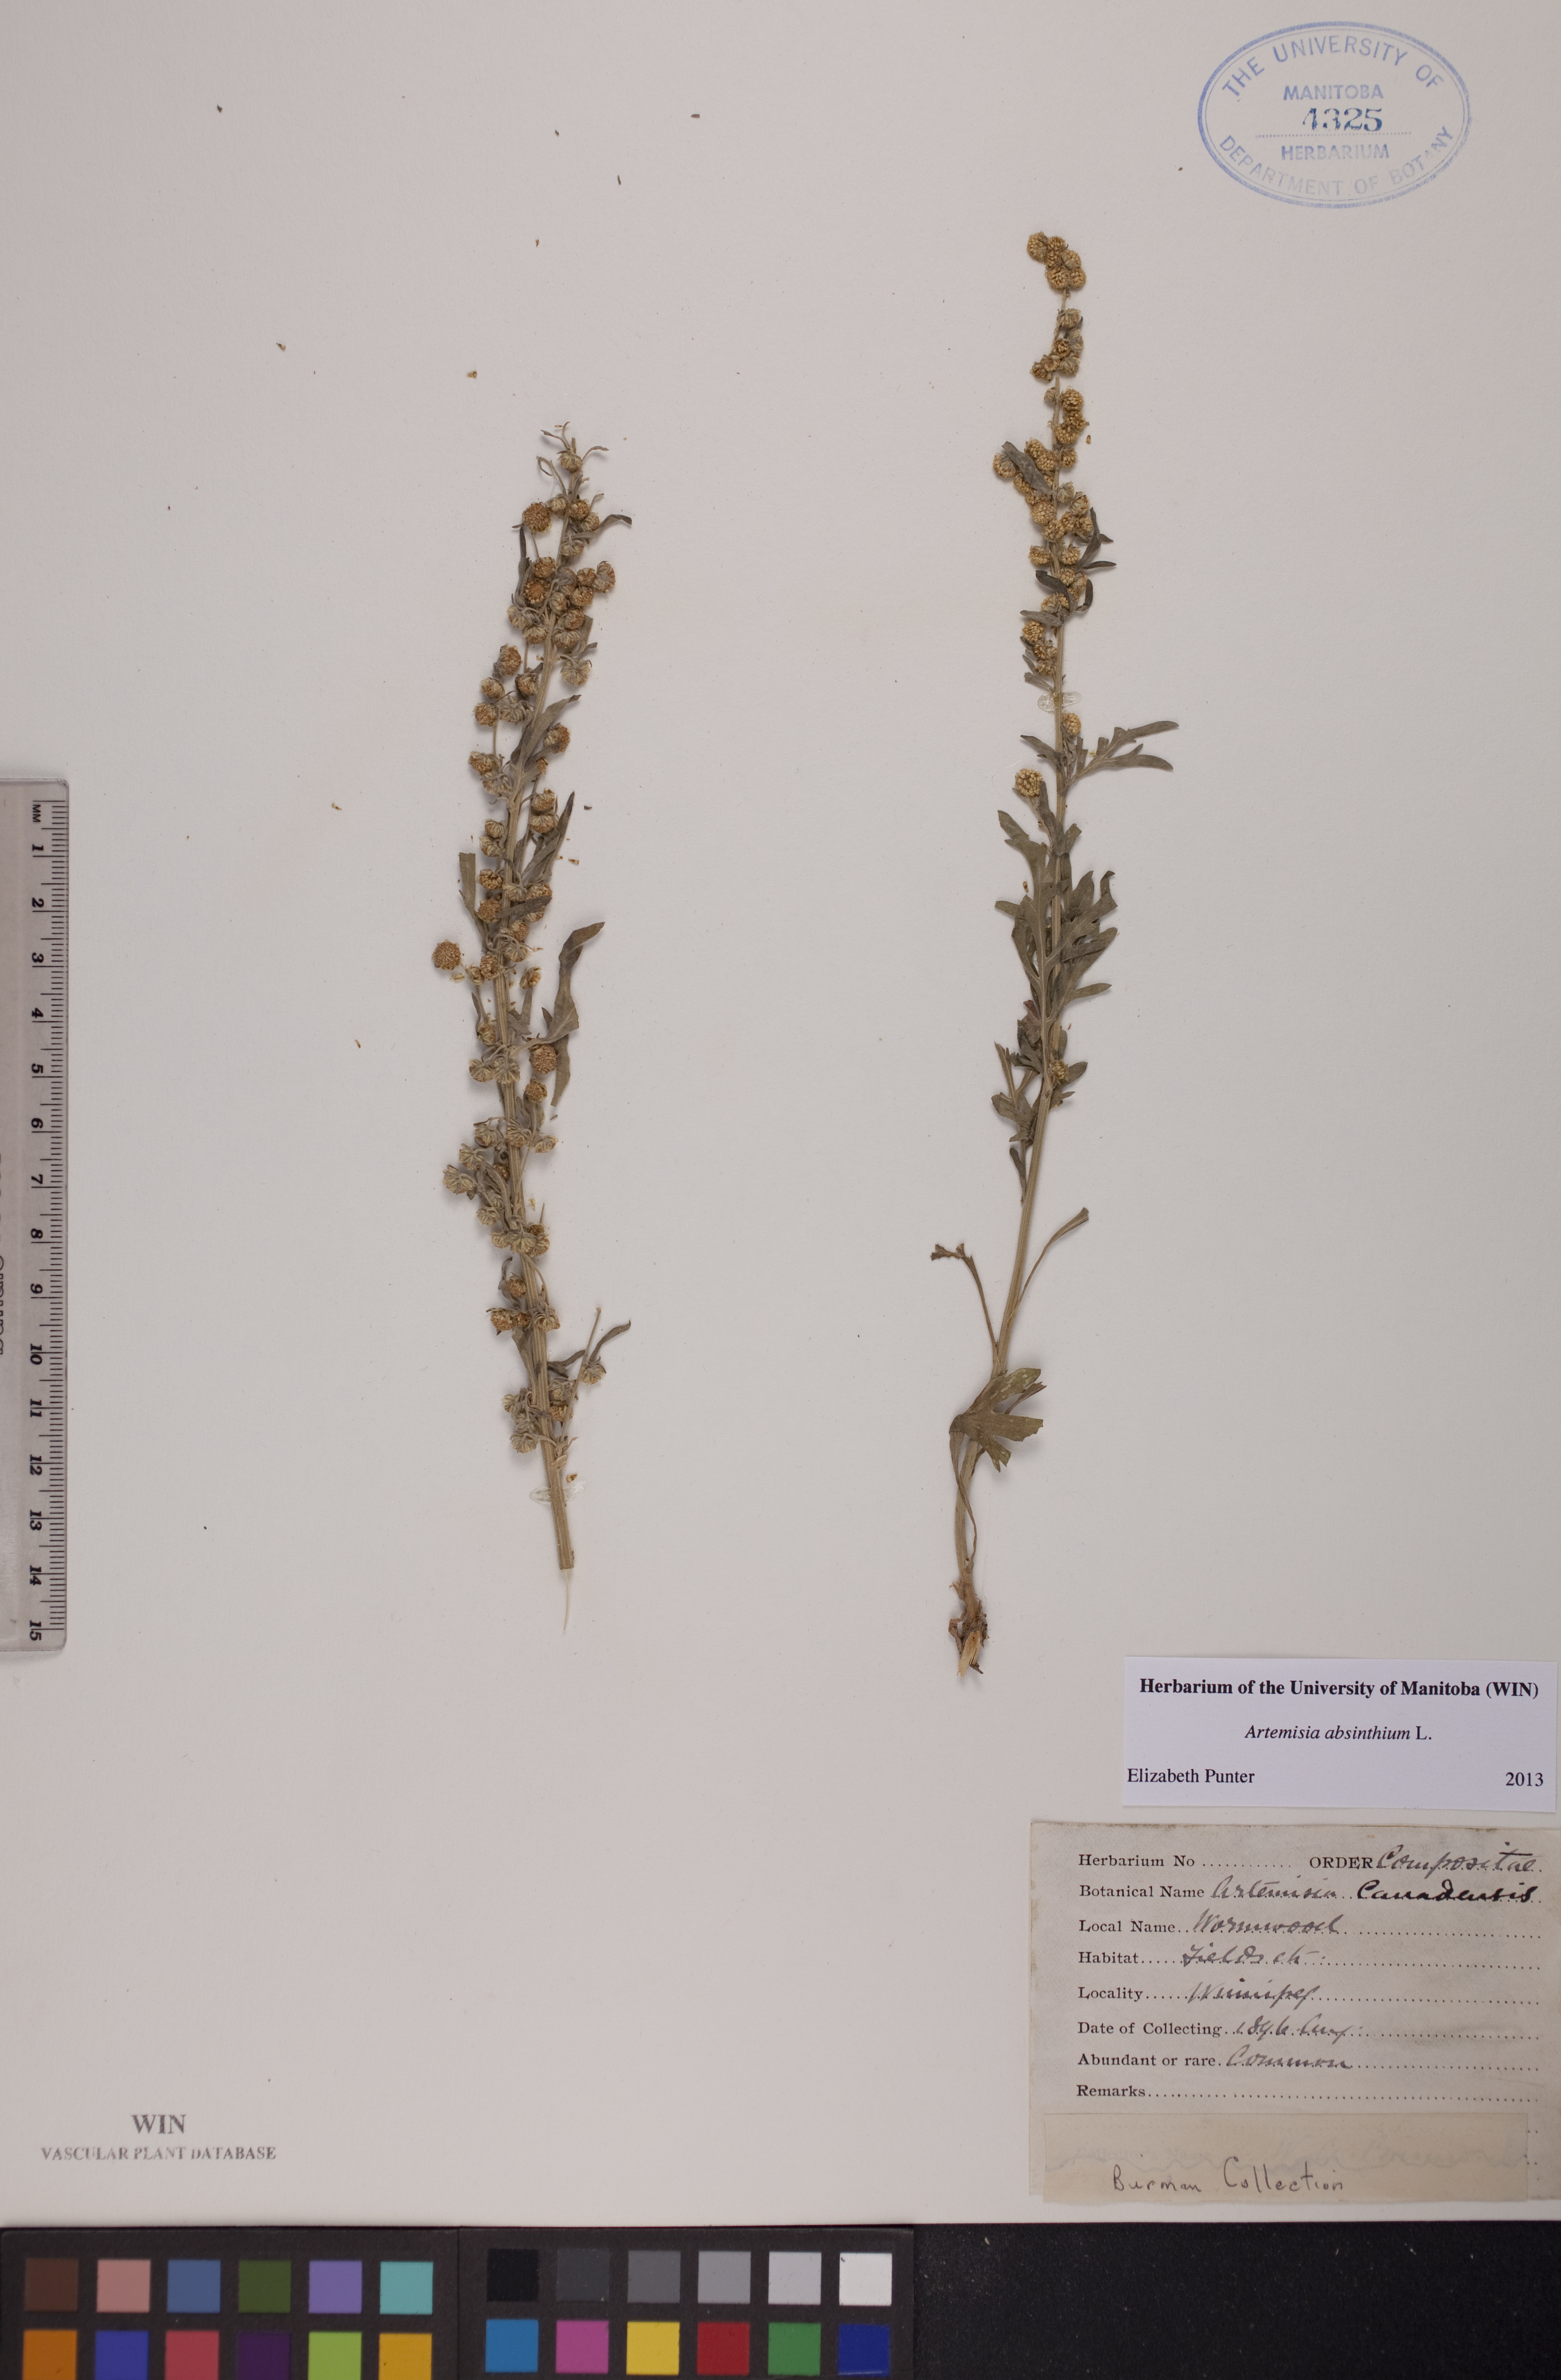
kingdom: Plantae
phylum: Tracheophyta
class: Magnoliopsida
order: Asterales
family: Asteraceae
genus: Artemisia
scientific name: Artemisia absinthium
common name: Wormwood
